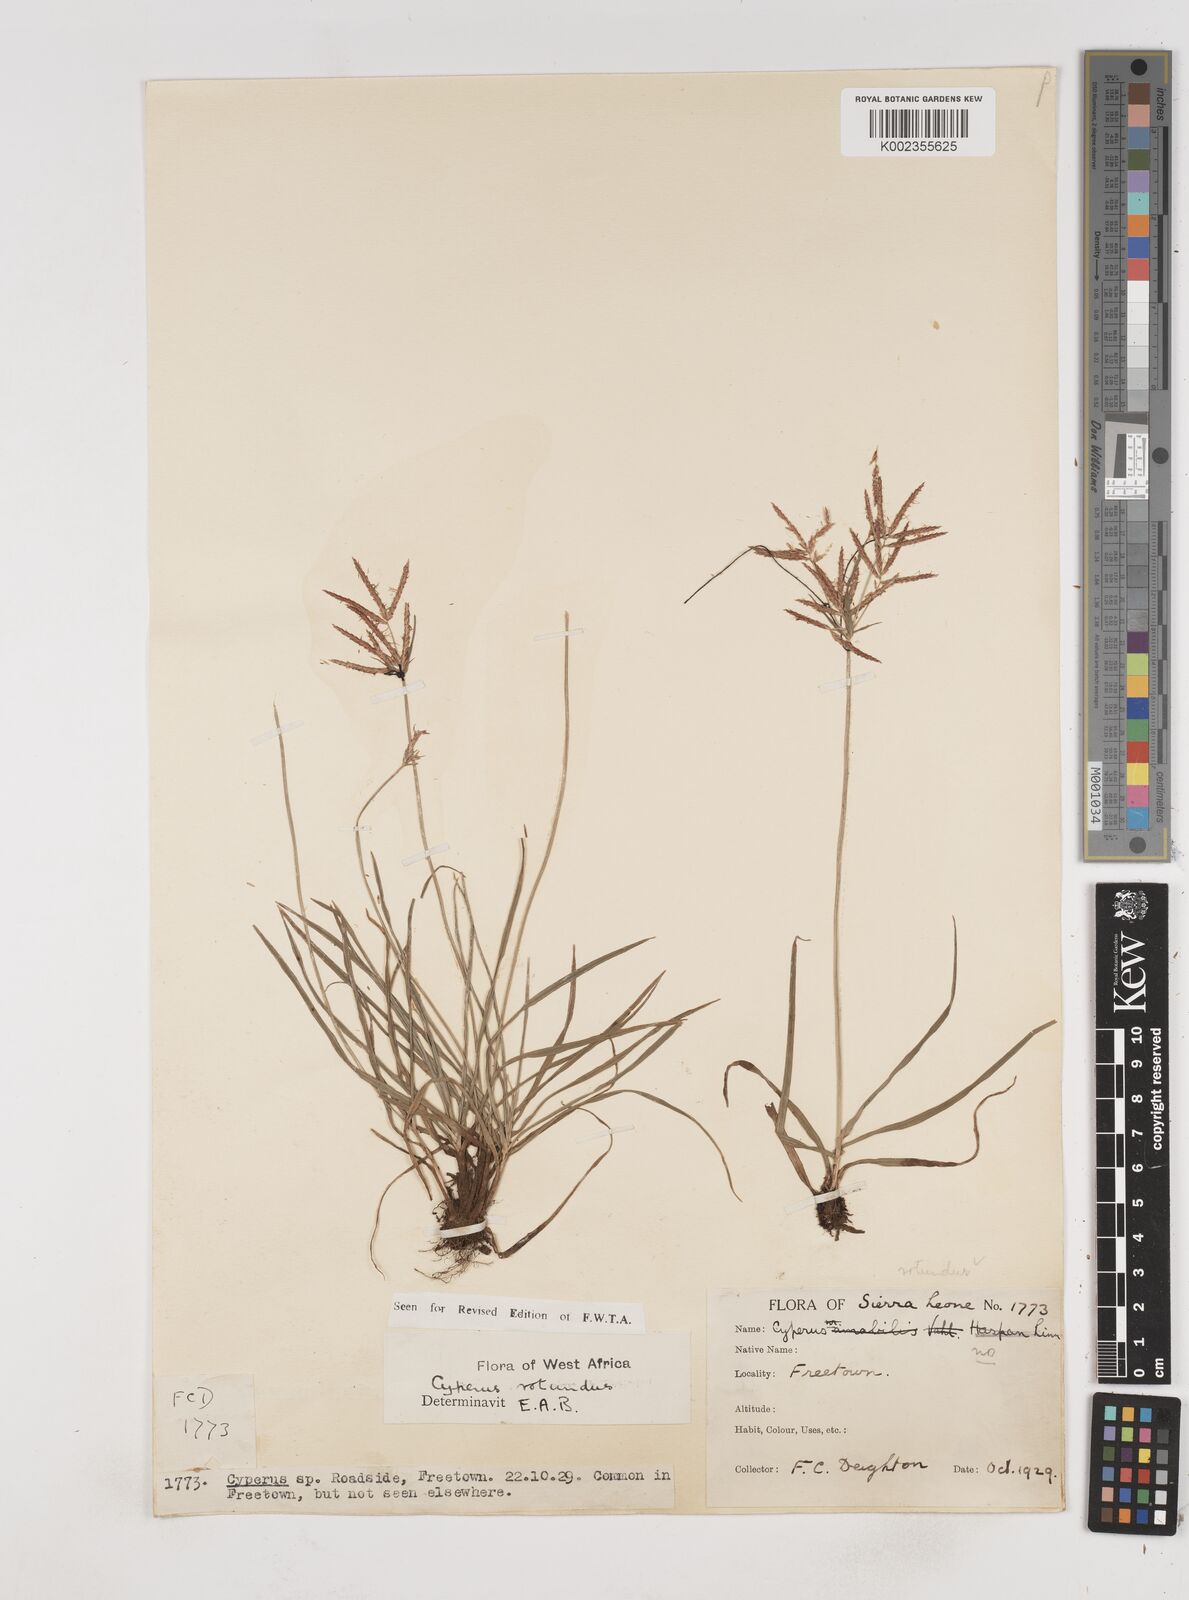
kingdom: Plantae
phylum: Tracheophyta
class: Liliopsida
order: Poales
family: Cyperaceae
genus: Cyperus
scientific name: Cyperus rotundus
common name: Nutgrass
